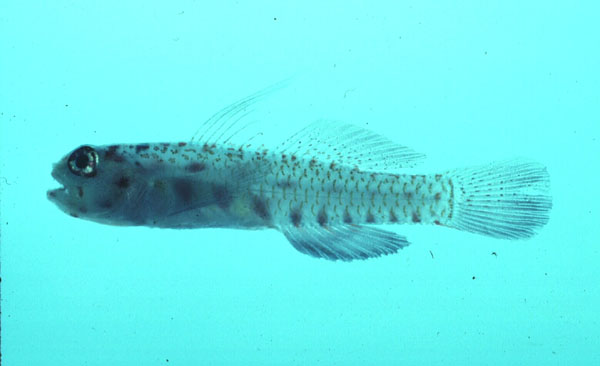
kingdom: Animalia
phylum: Chordata
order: Perciformes
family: Gobiidae
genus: Eviota
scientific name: Eviota storthynx
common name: Belly-spotted pygmy-goby
